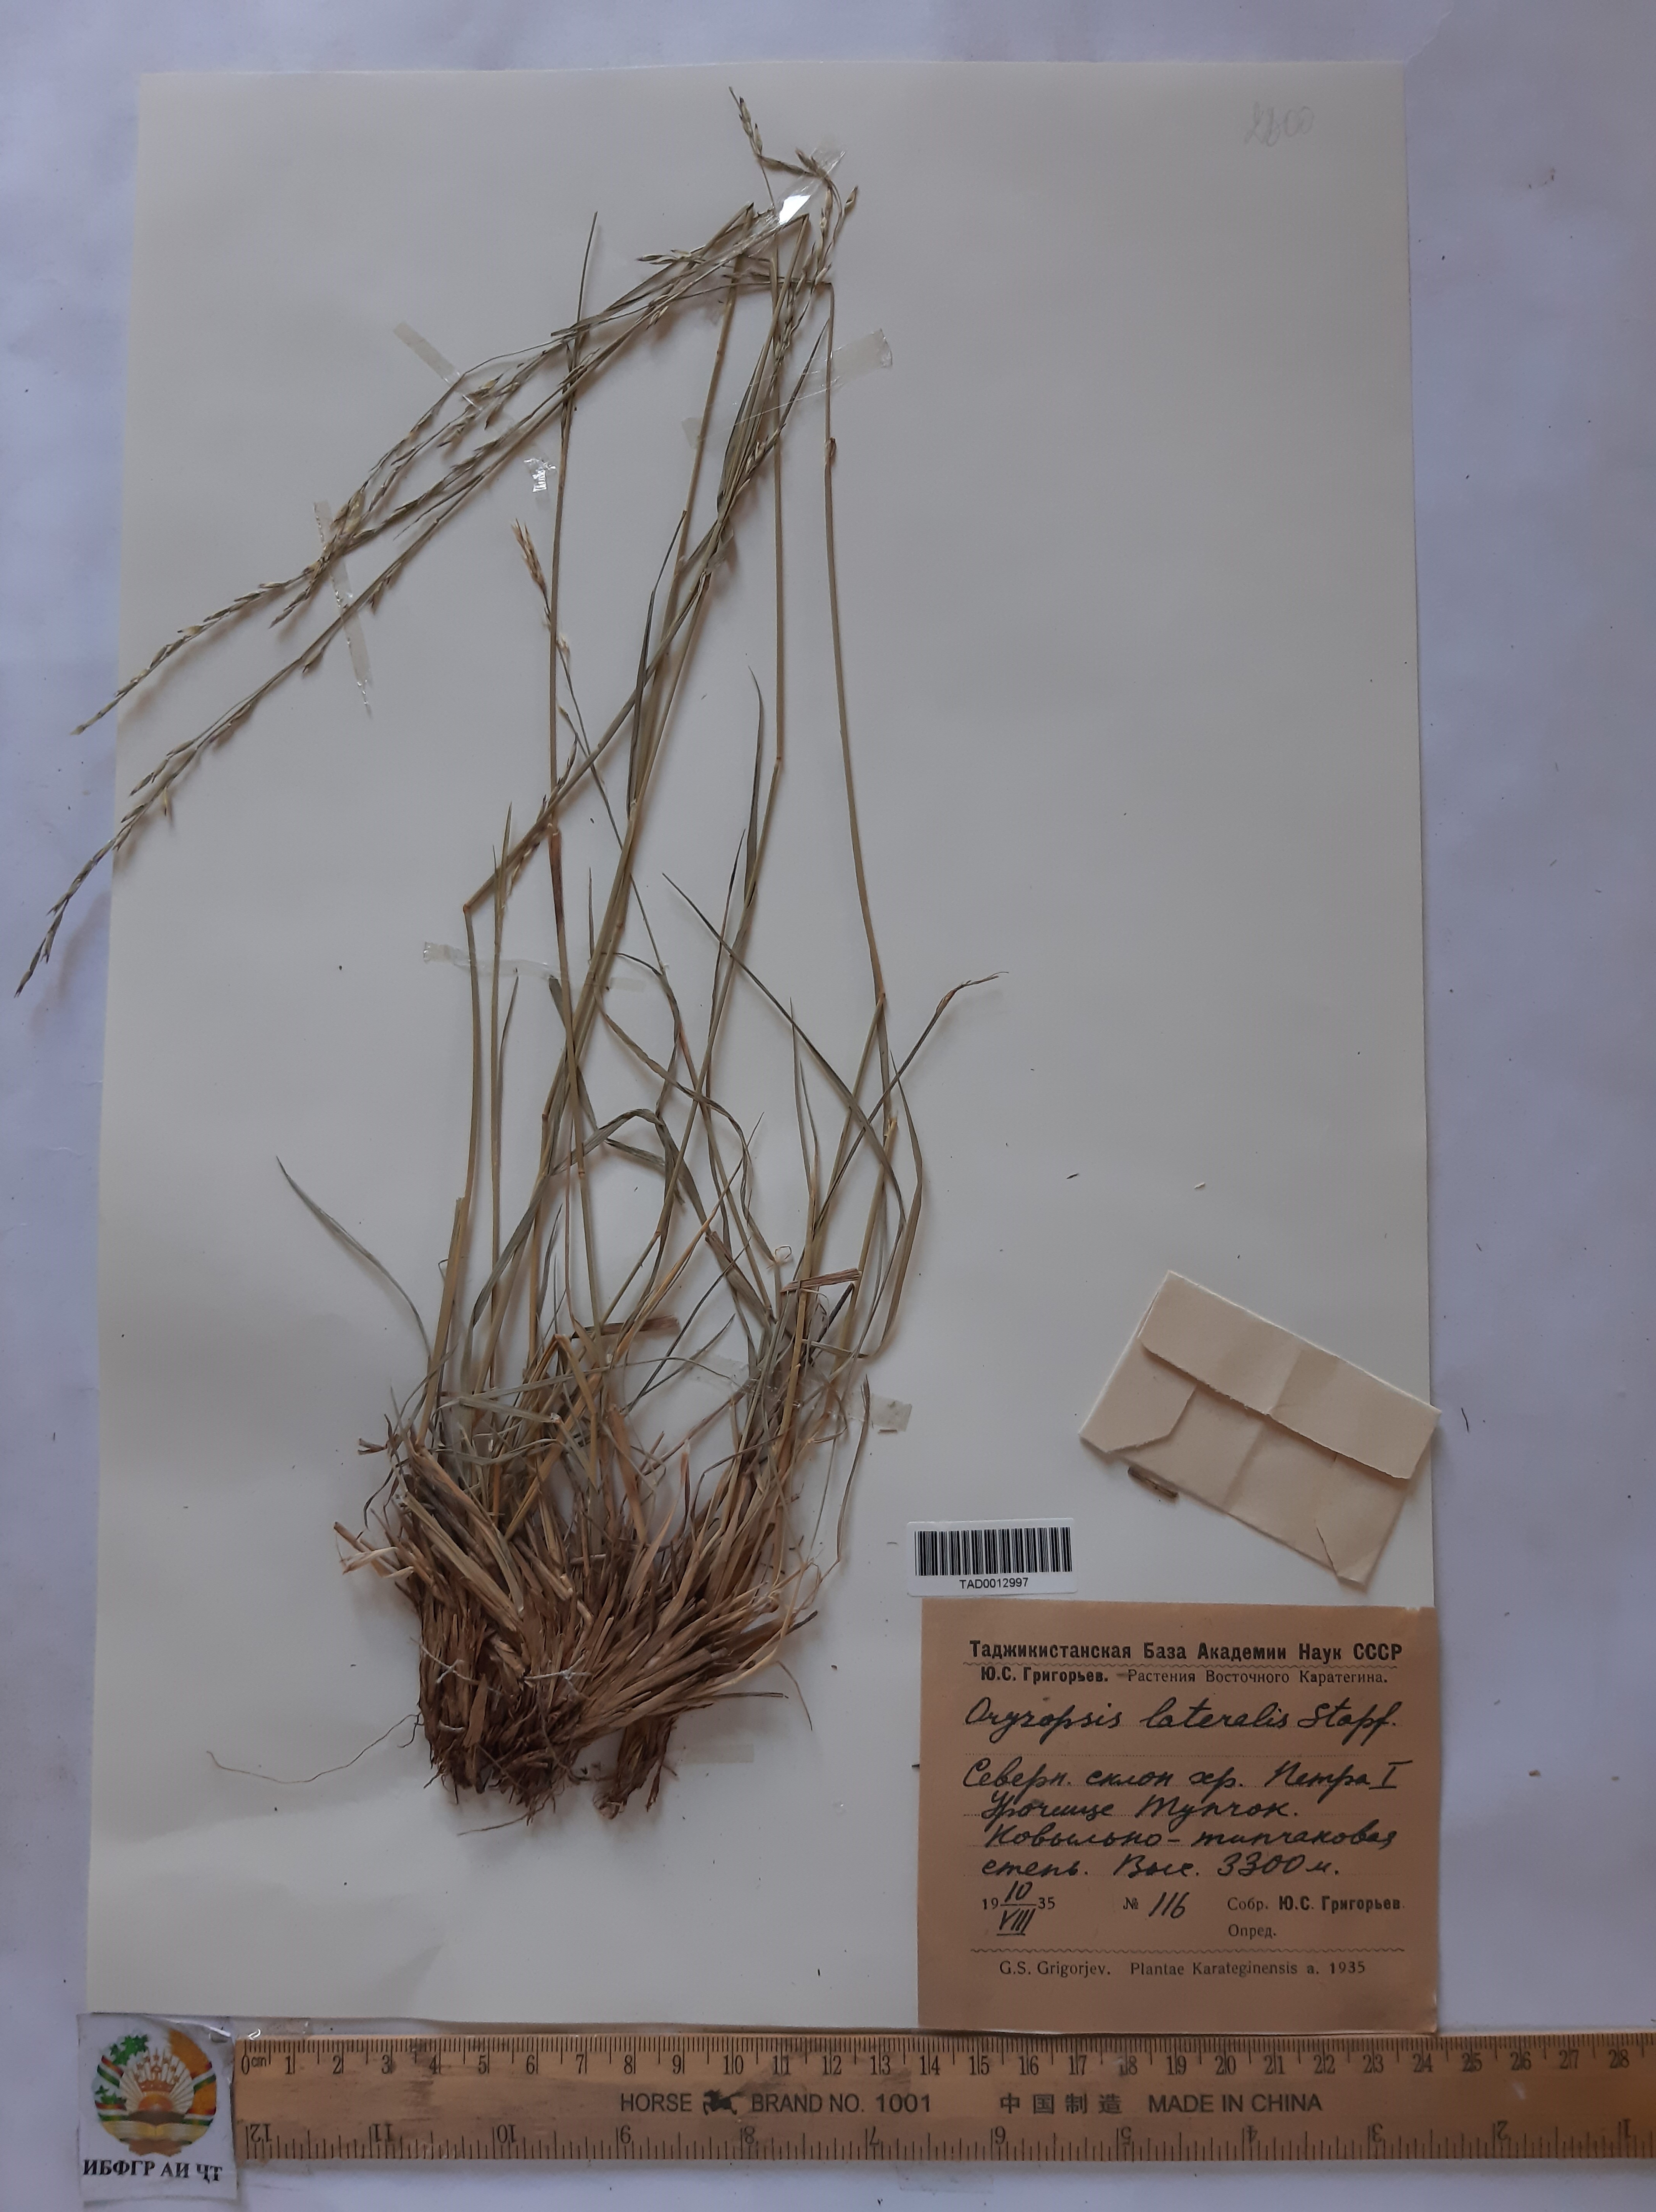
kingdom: Plantae
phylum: Tracheophyta
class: Liliopsida
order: Poales
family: Poaceae
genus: Piptatherum
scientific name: Piptatherum laterale
